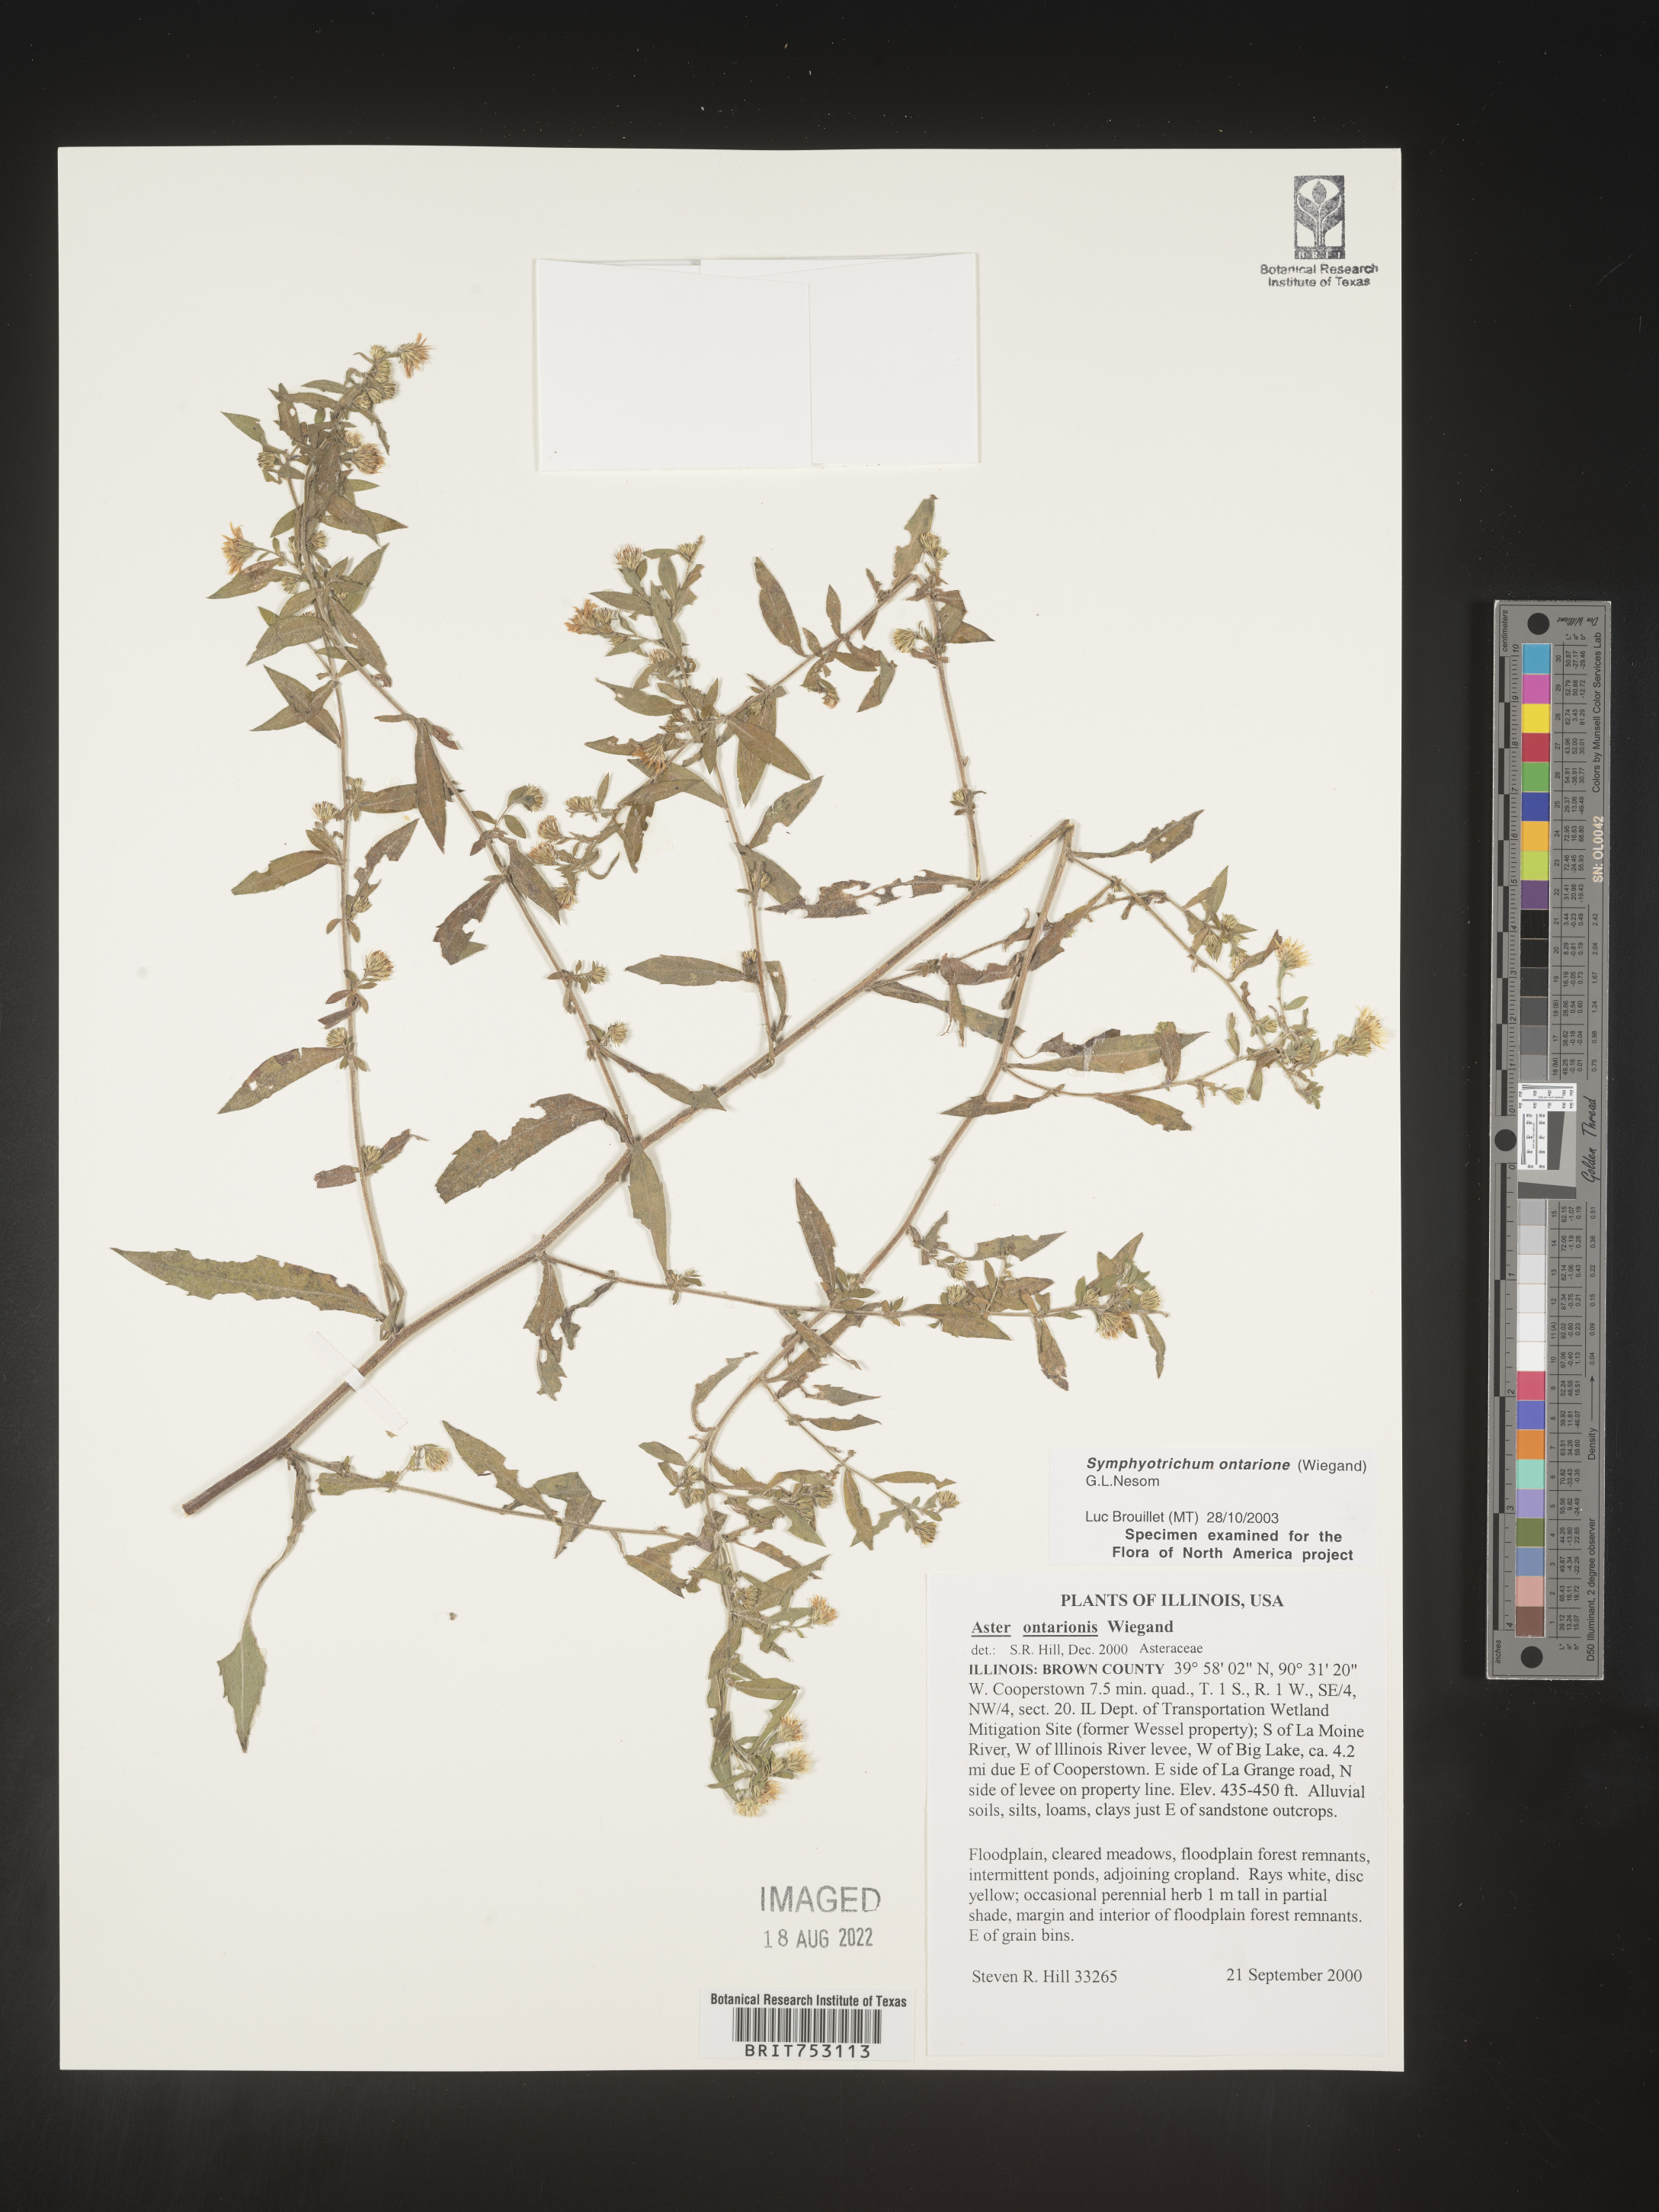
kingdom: Plantae
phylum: Tracheophyta
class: Magnoliopsida
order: Asterales
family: Asteraceae
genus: Symphyotrichum
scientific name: Symphyotrichum ontarionis
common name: Bottomland aster
